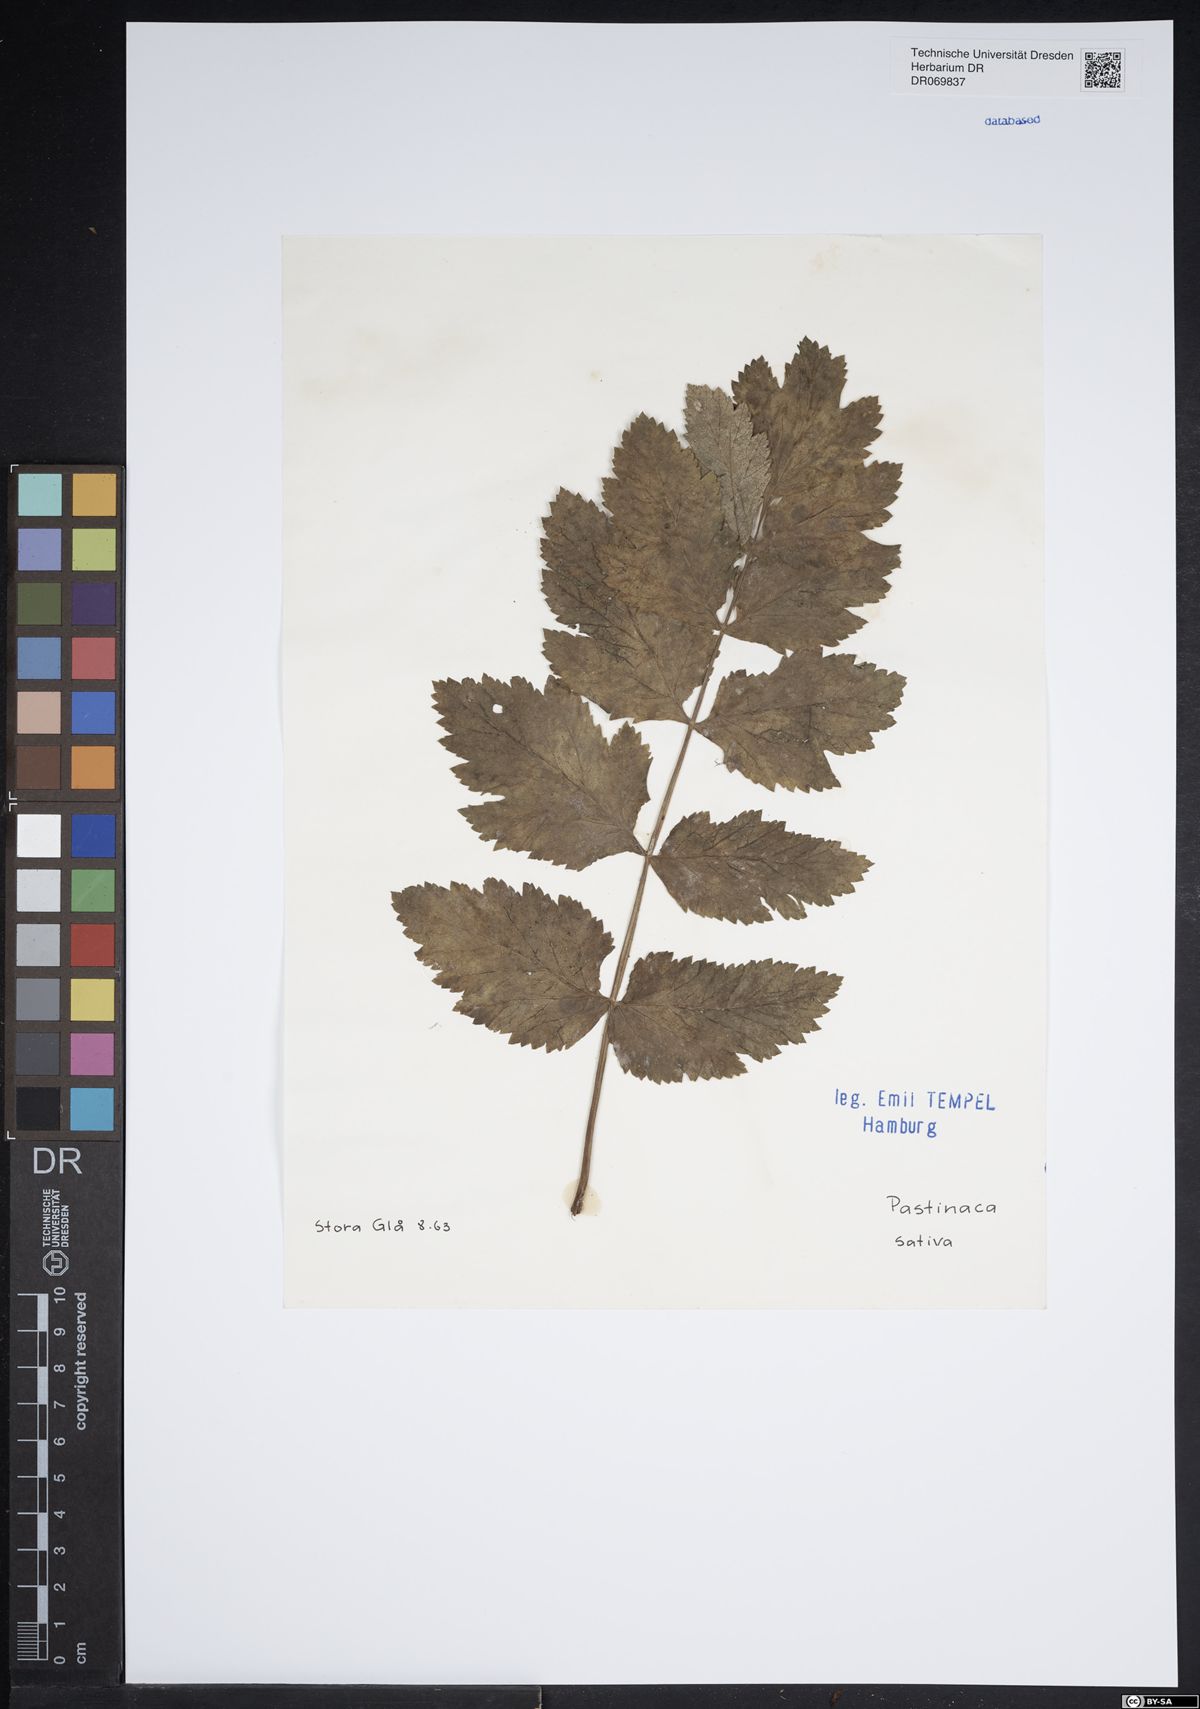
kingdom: Plantae
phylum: Tracheophyta
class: Magnoliopsida
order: Apiales
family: Apiaceae
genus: Pastinaca
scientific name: Pastinaca sativa
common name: Wild parsnip
